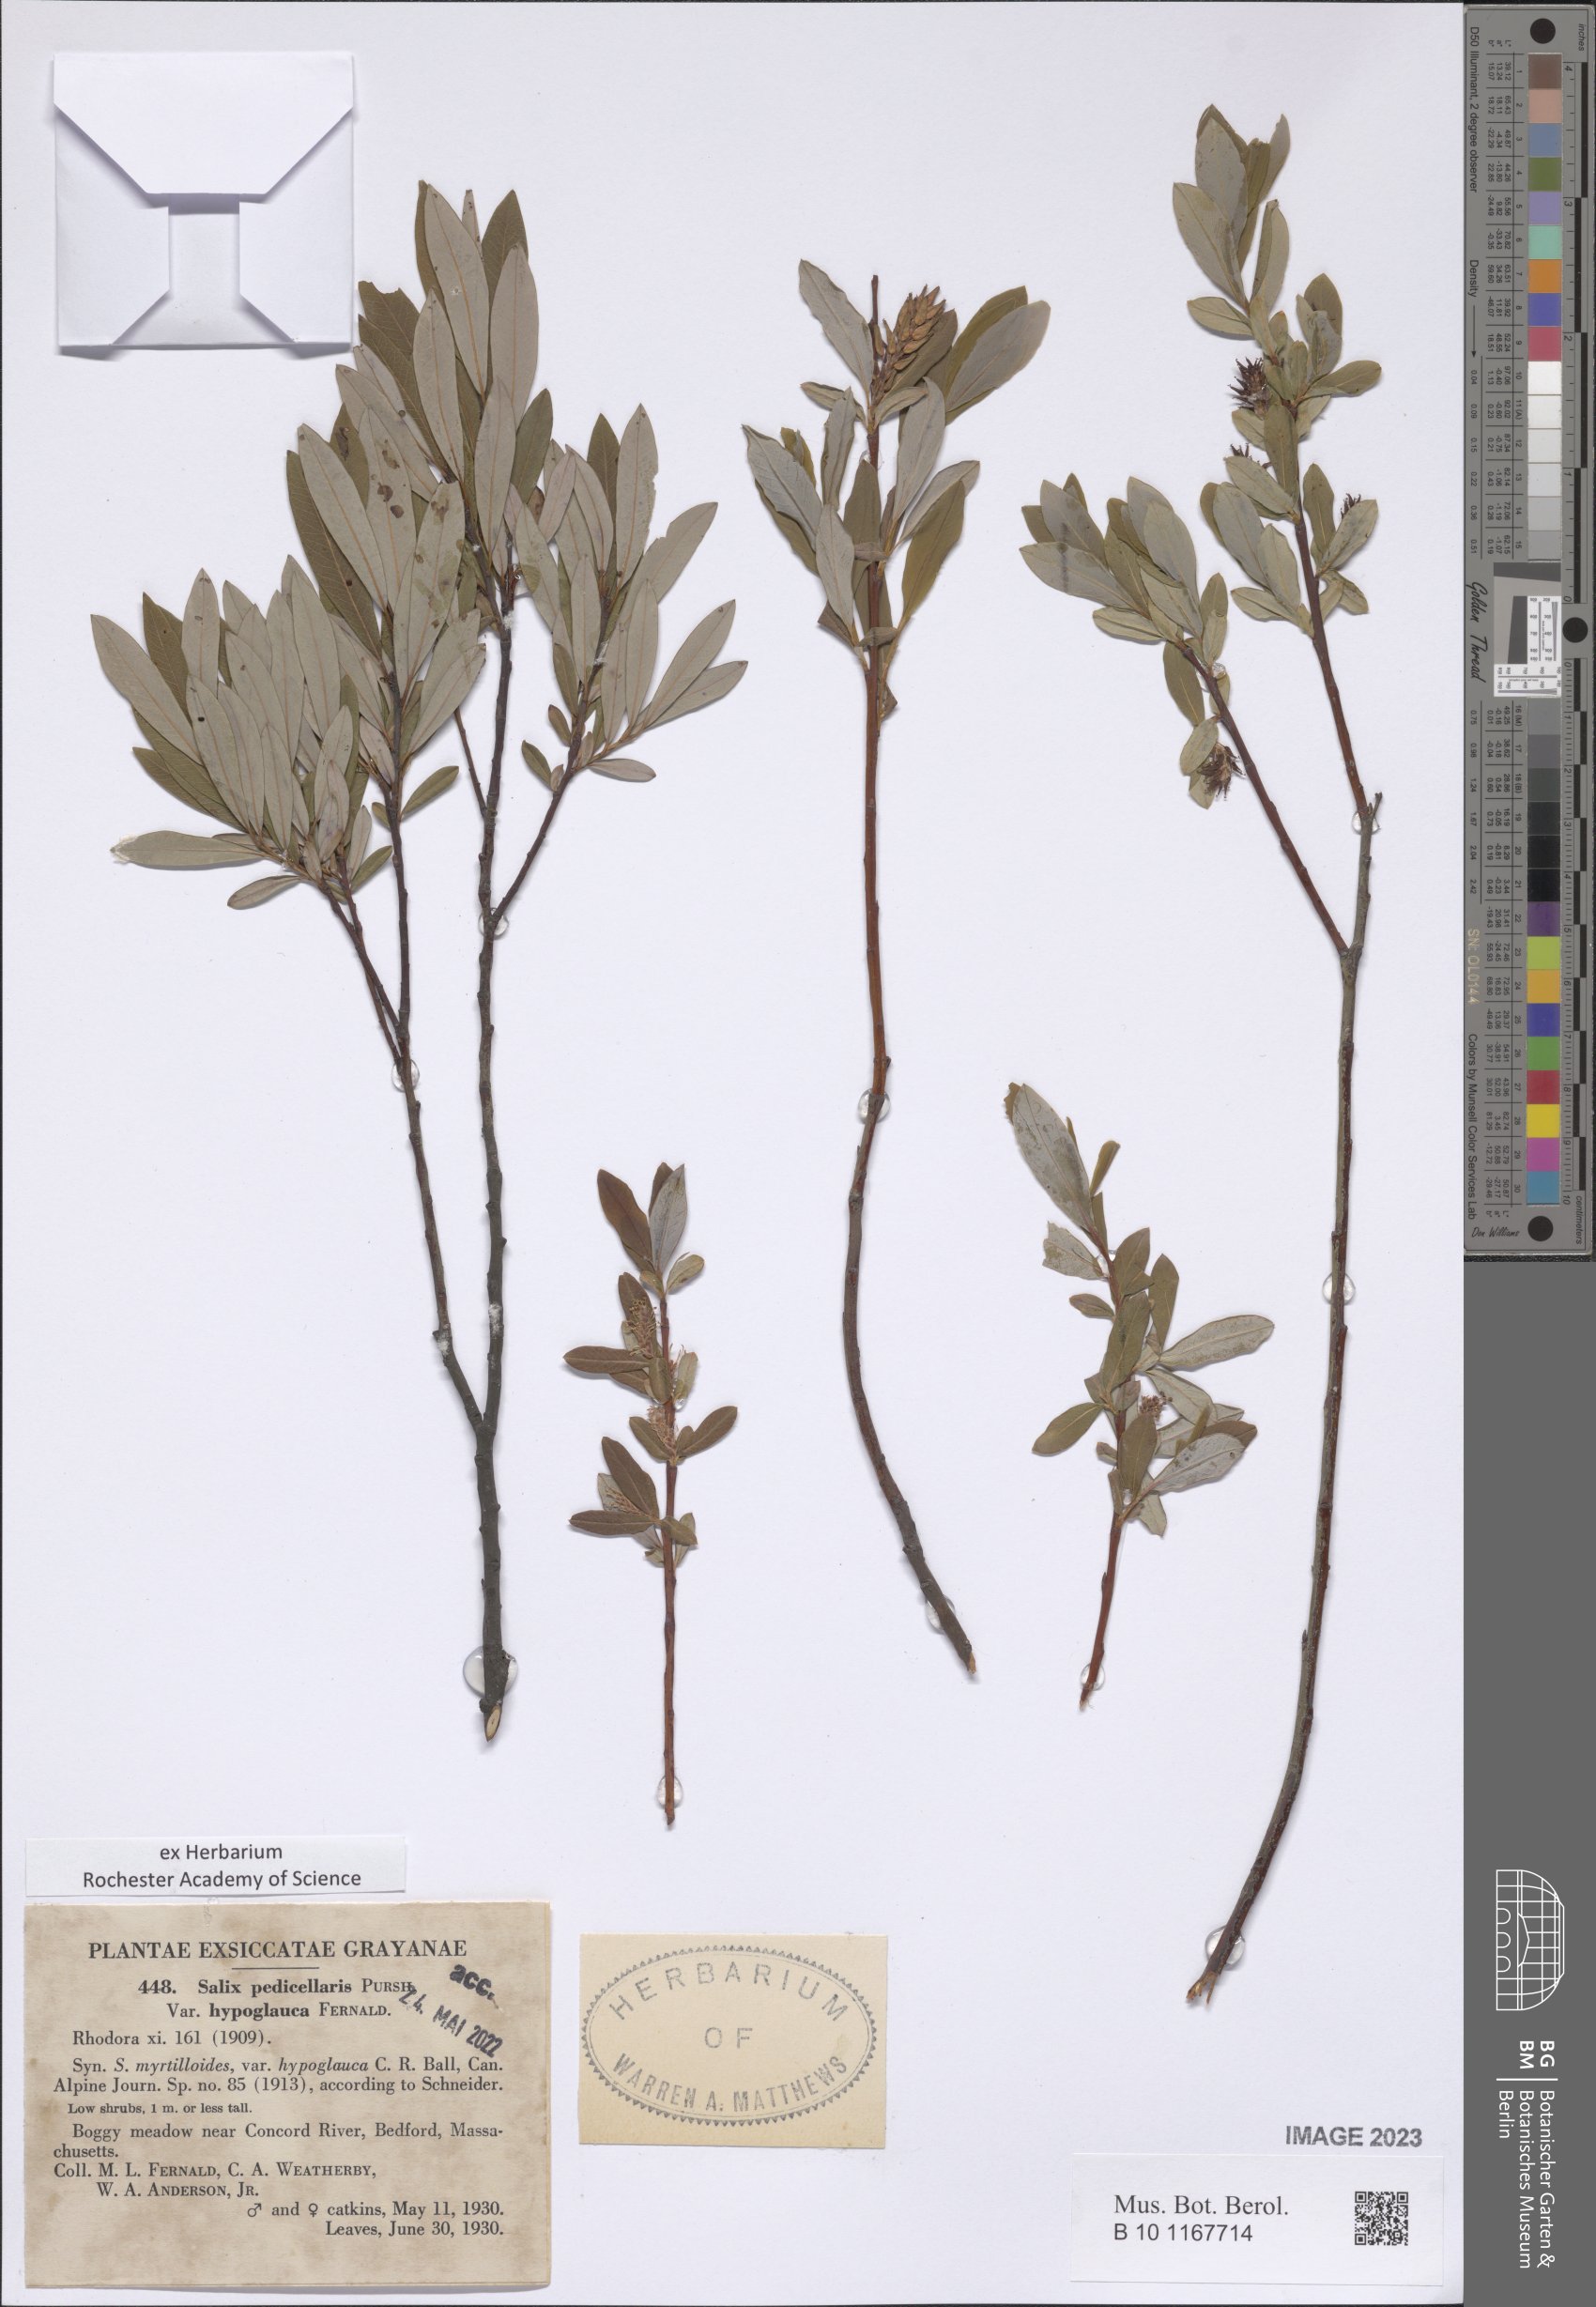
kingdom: Plantae
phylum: Tracheophyta
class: Magnoliopsida
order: Malpighiales
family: Salicaceae
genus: Salix
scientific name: Salix pedicellaris
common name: Bog willow
